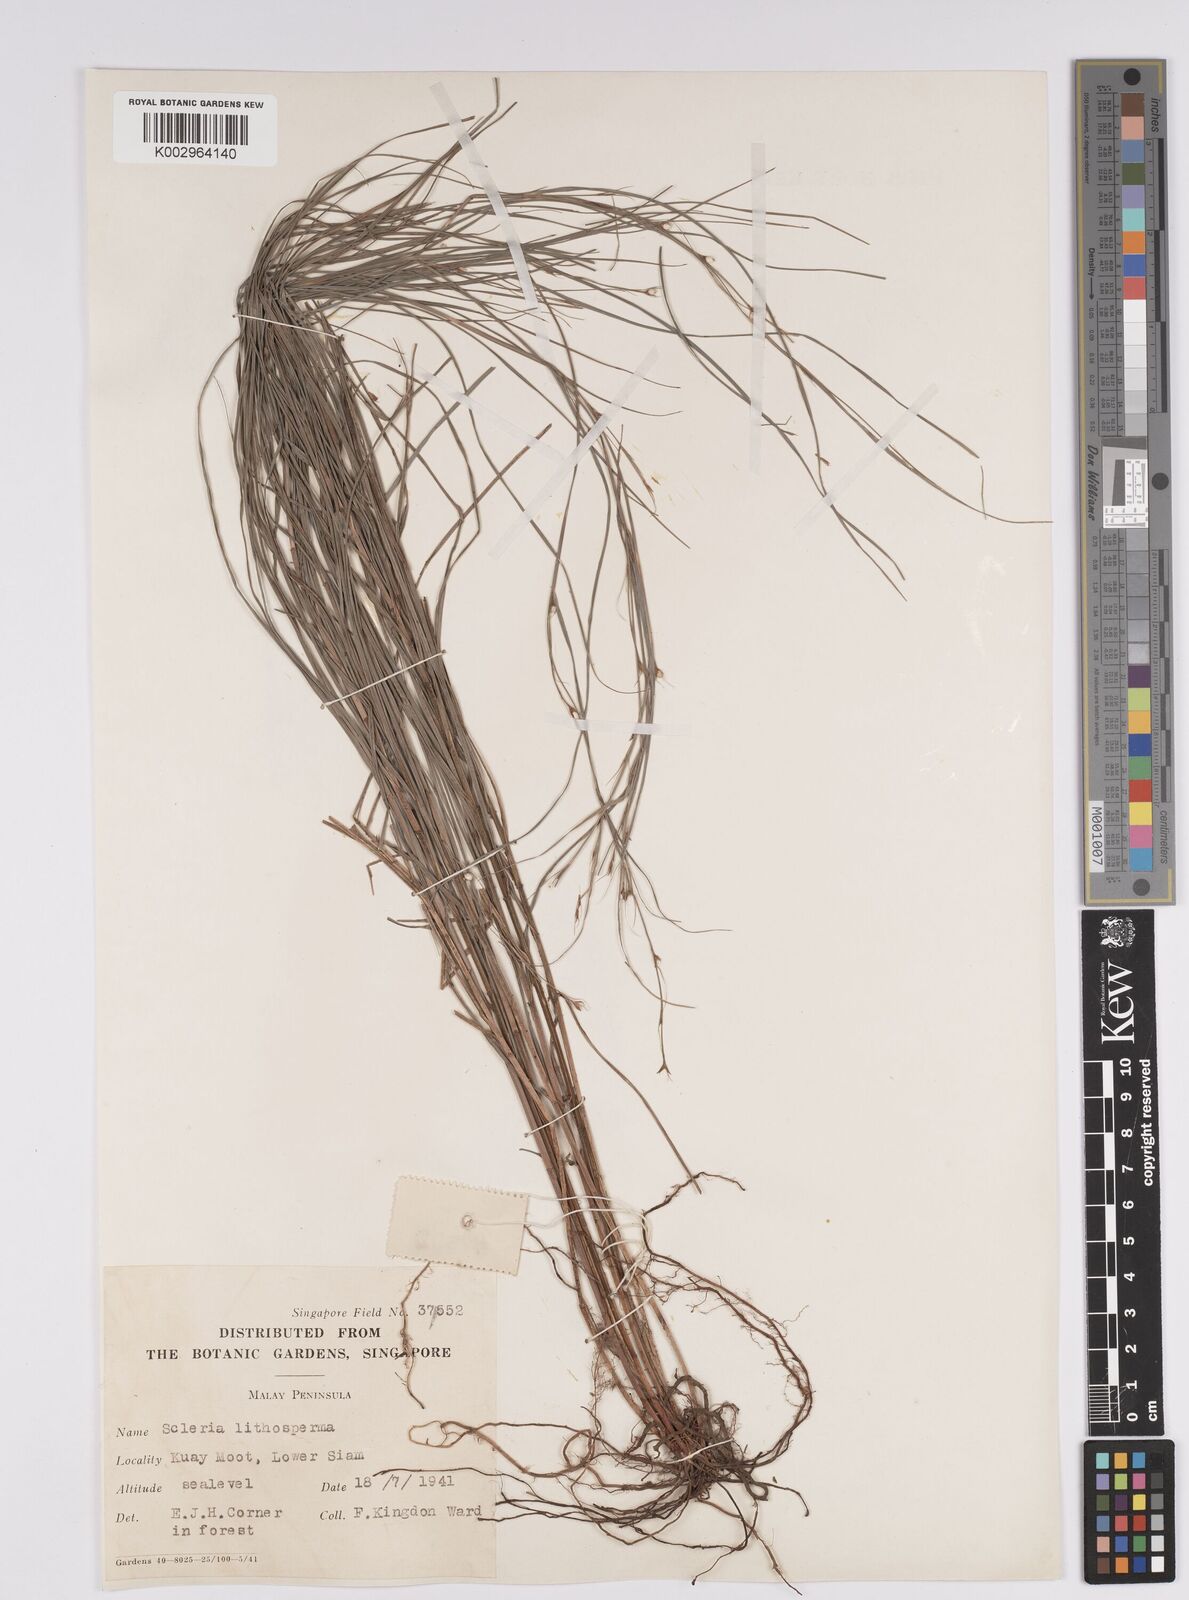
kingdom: Plantae
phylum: Tracheophyta
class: Liliopsida
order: Poales
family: Cyperaceae
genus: Scleria
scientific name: Scleria lithosperma
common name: Florida keys nut-rush
